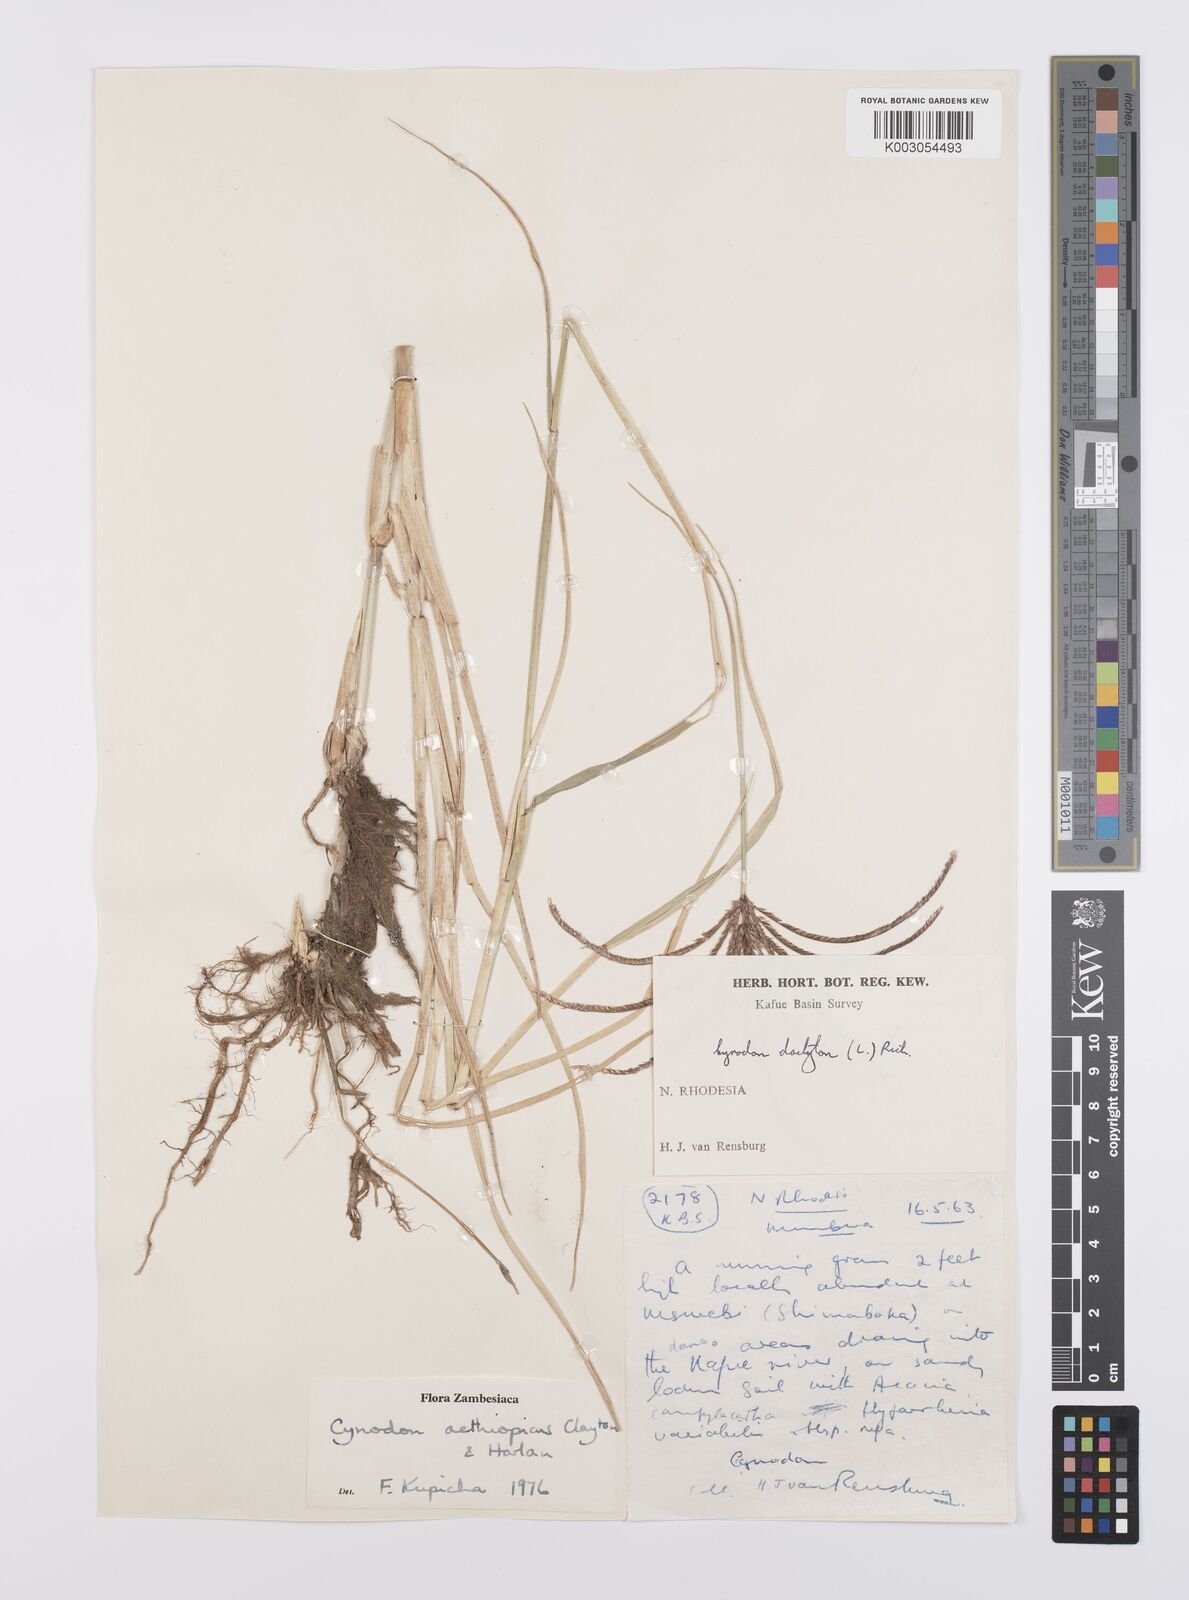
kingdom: Plantae
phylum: Tracheophyta
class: Liliopsida
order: Poales
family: Poaceae
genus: Cynodon
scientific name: Cynodon aethiopicus
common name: Ethiopian dogstooth grass
